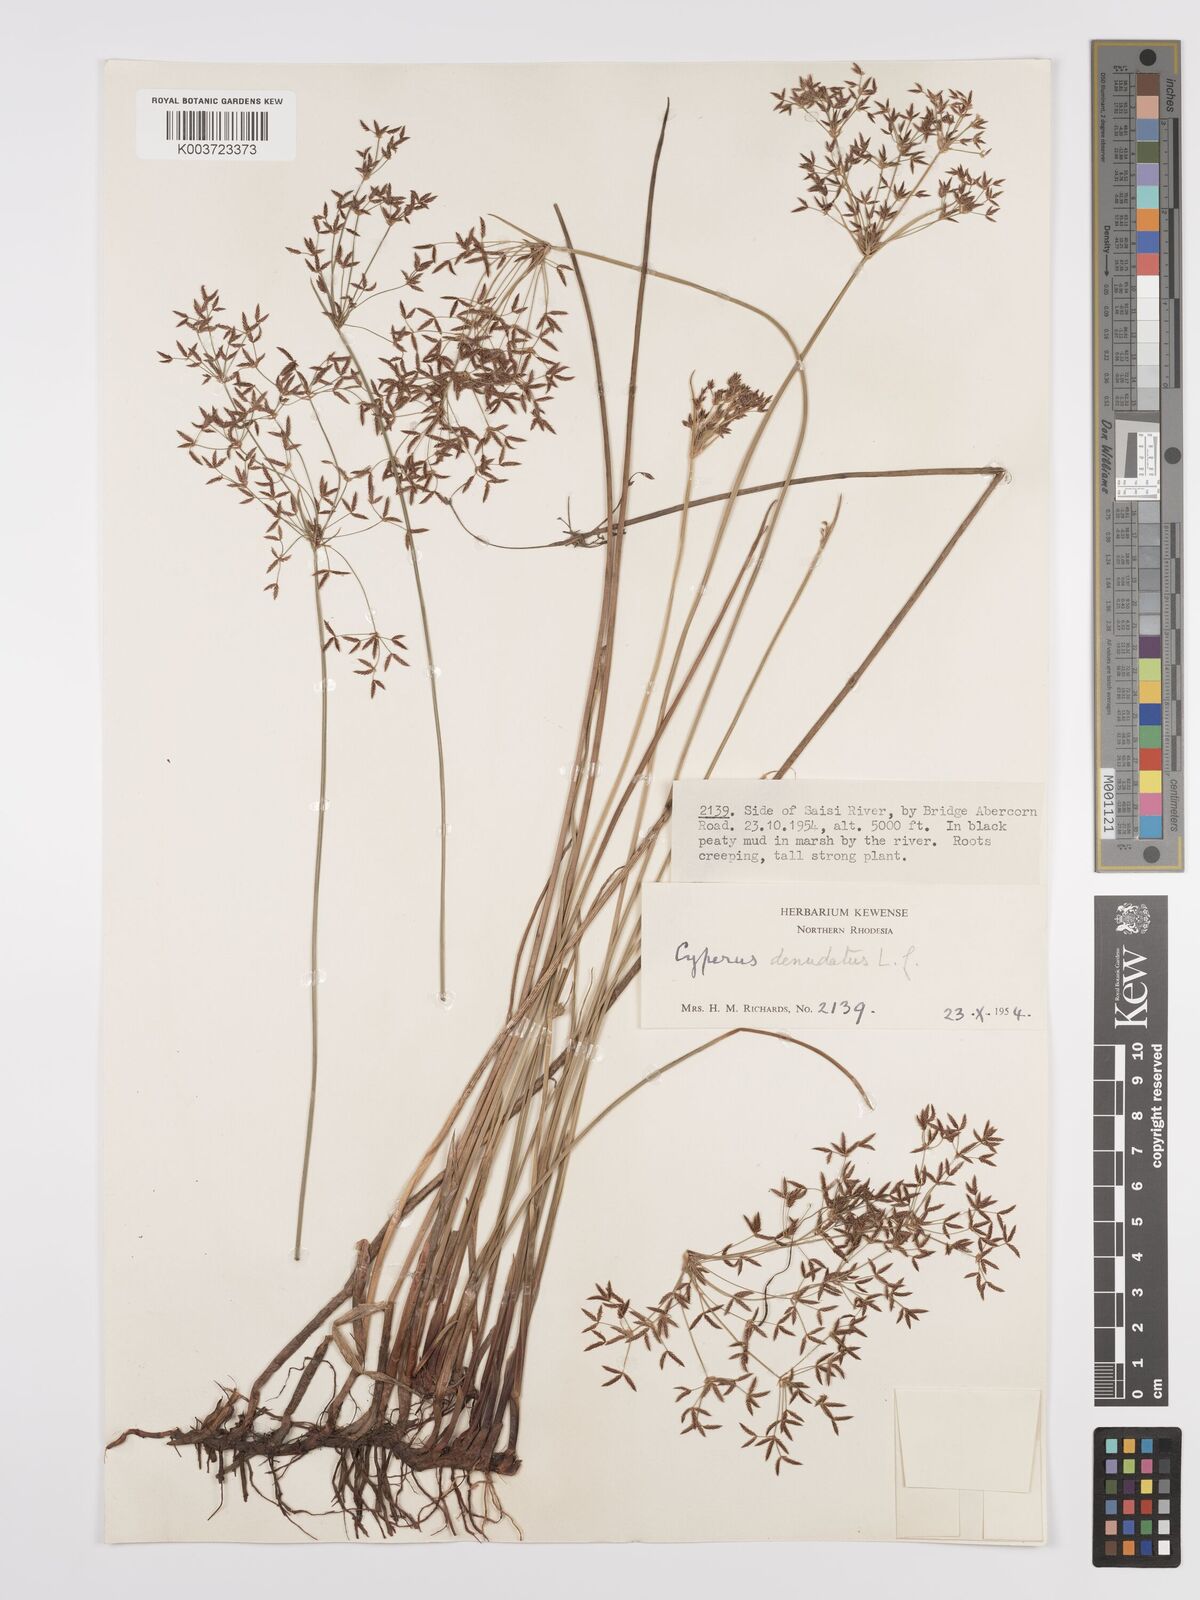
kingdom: Plantae
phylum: Tracheophyta
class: Liliopsida
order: Poales
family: Cyperaceae
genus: Cyperus
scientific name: Cyperus denudatus
